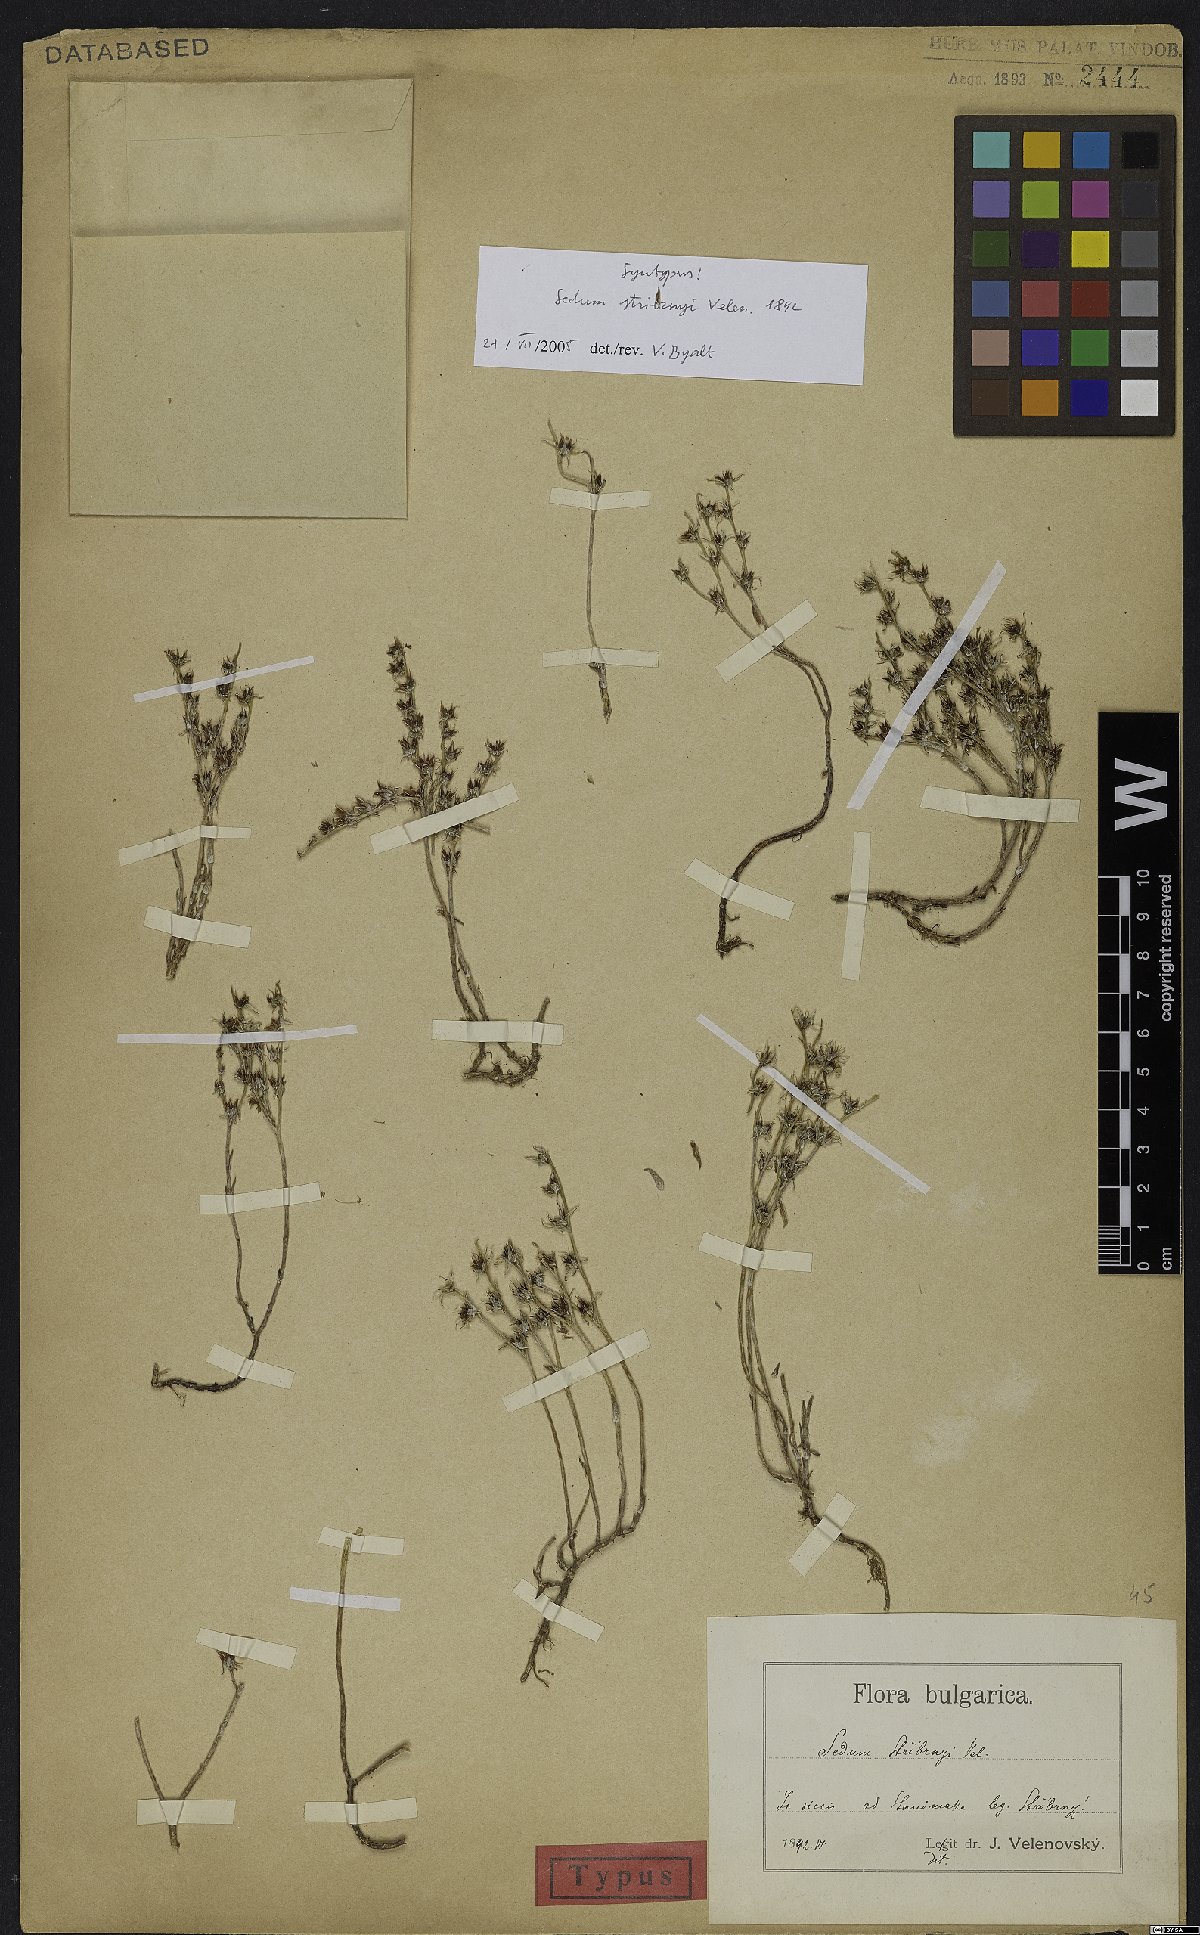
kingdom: Plantae
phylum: Tracheophyta
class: Magnoliopsida
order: Saxifragales
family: Crassulaceae
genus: Sedum
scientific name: Sedum urvillei
